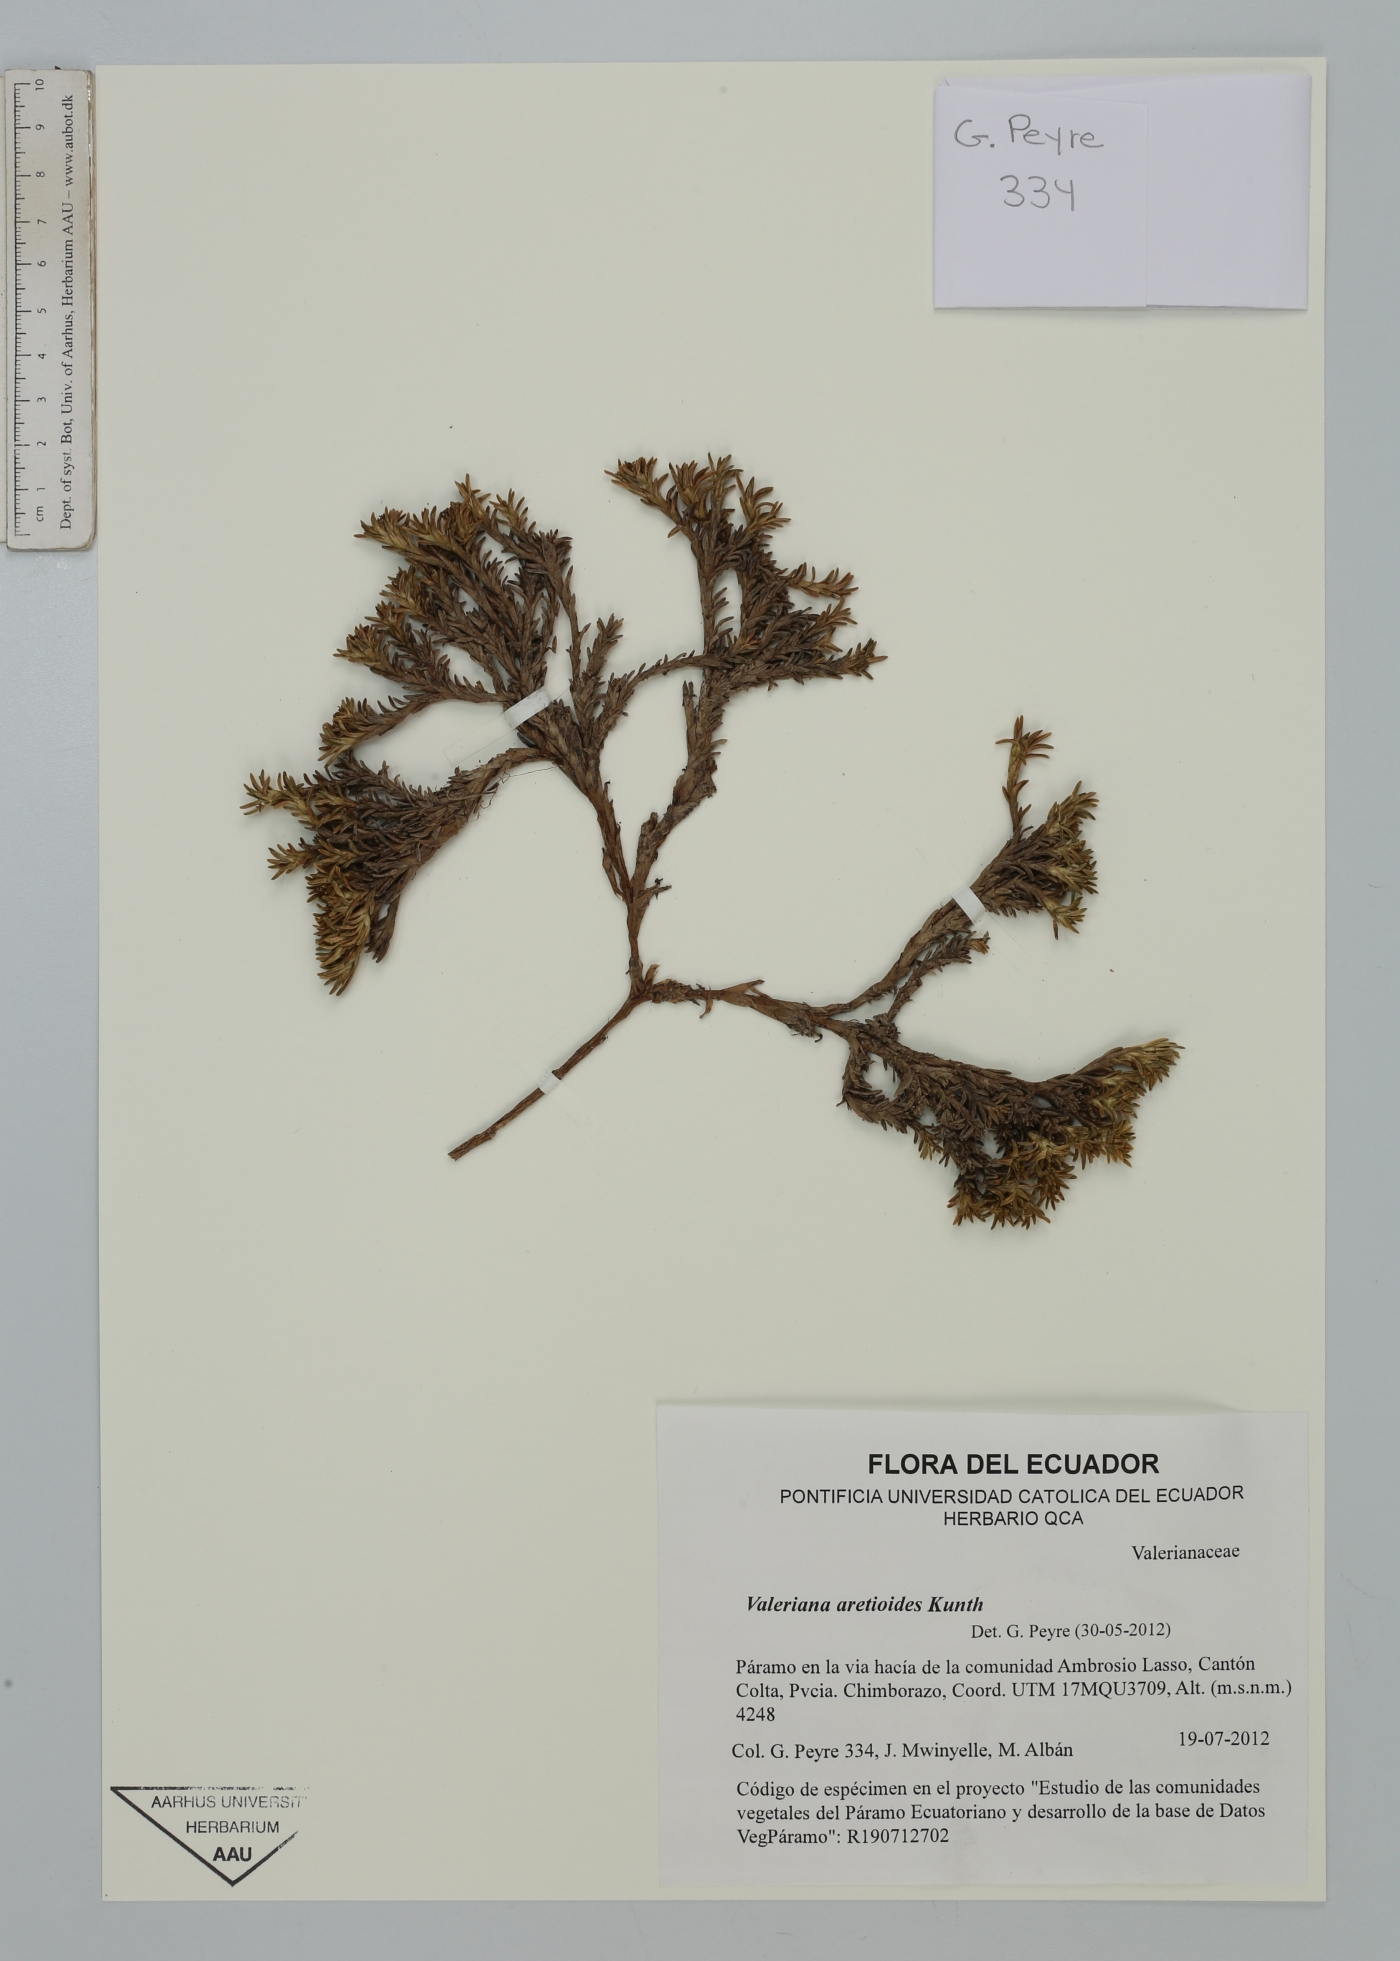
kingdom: Plantae
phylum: Tracheophyta
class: Magnoliopsida
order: Dipsacales
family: Caprifoliaceae
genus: Valeriana
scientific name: Valeriana aretioides
